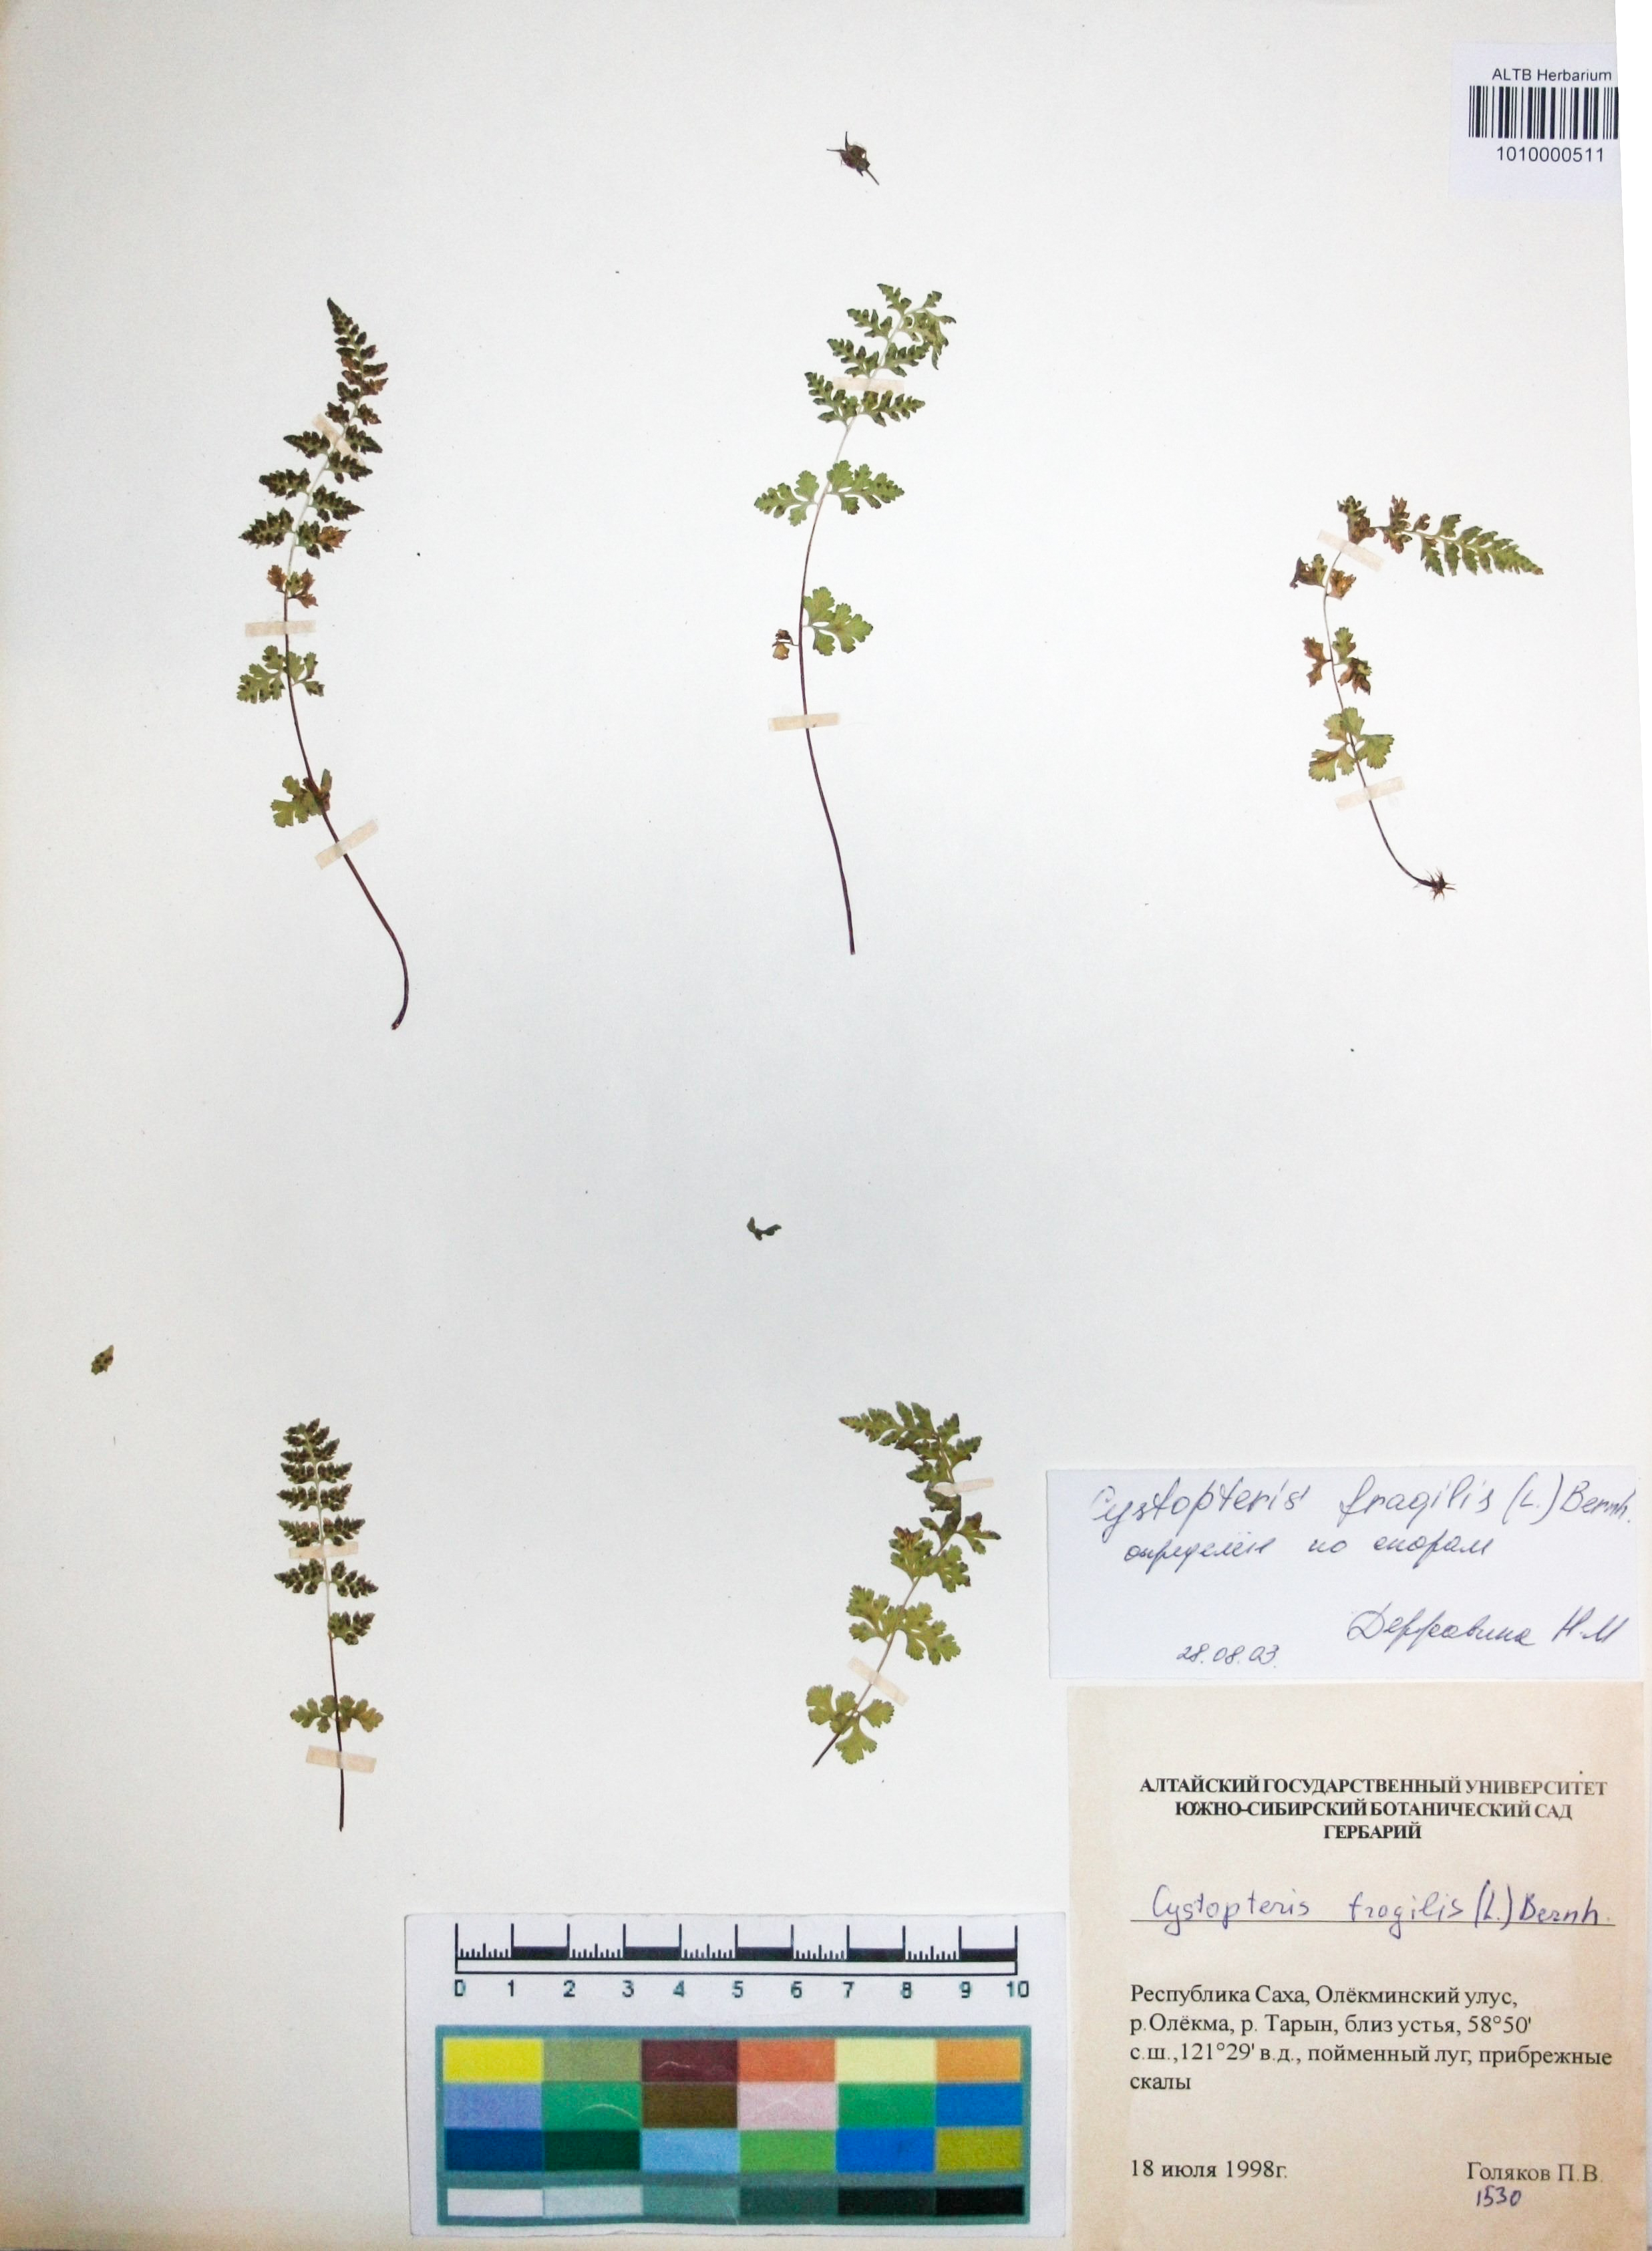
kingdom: Plantae
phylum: Tracheophyta
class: Polypodiopsida
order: Polypodiales
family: Cystopteridaceae
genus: Cystopteris
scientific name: Cystopteris fragilis
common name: Brittle bladder fern
